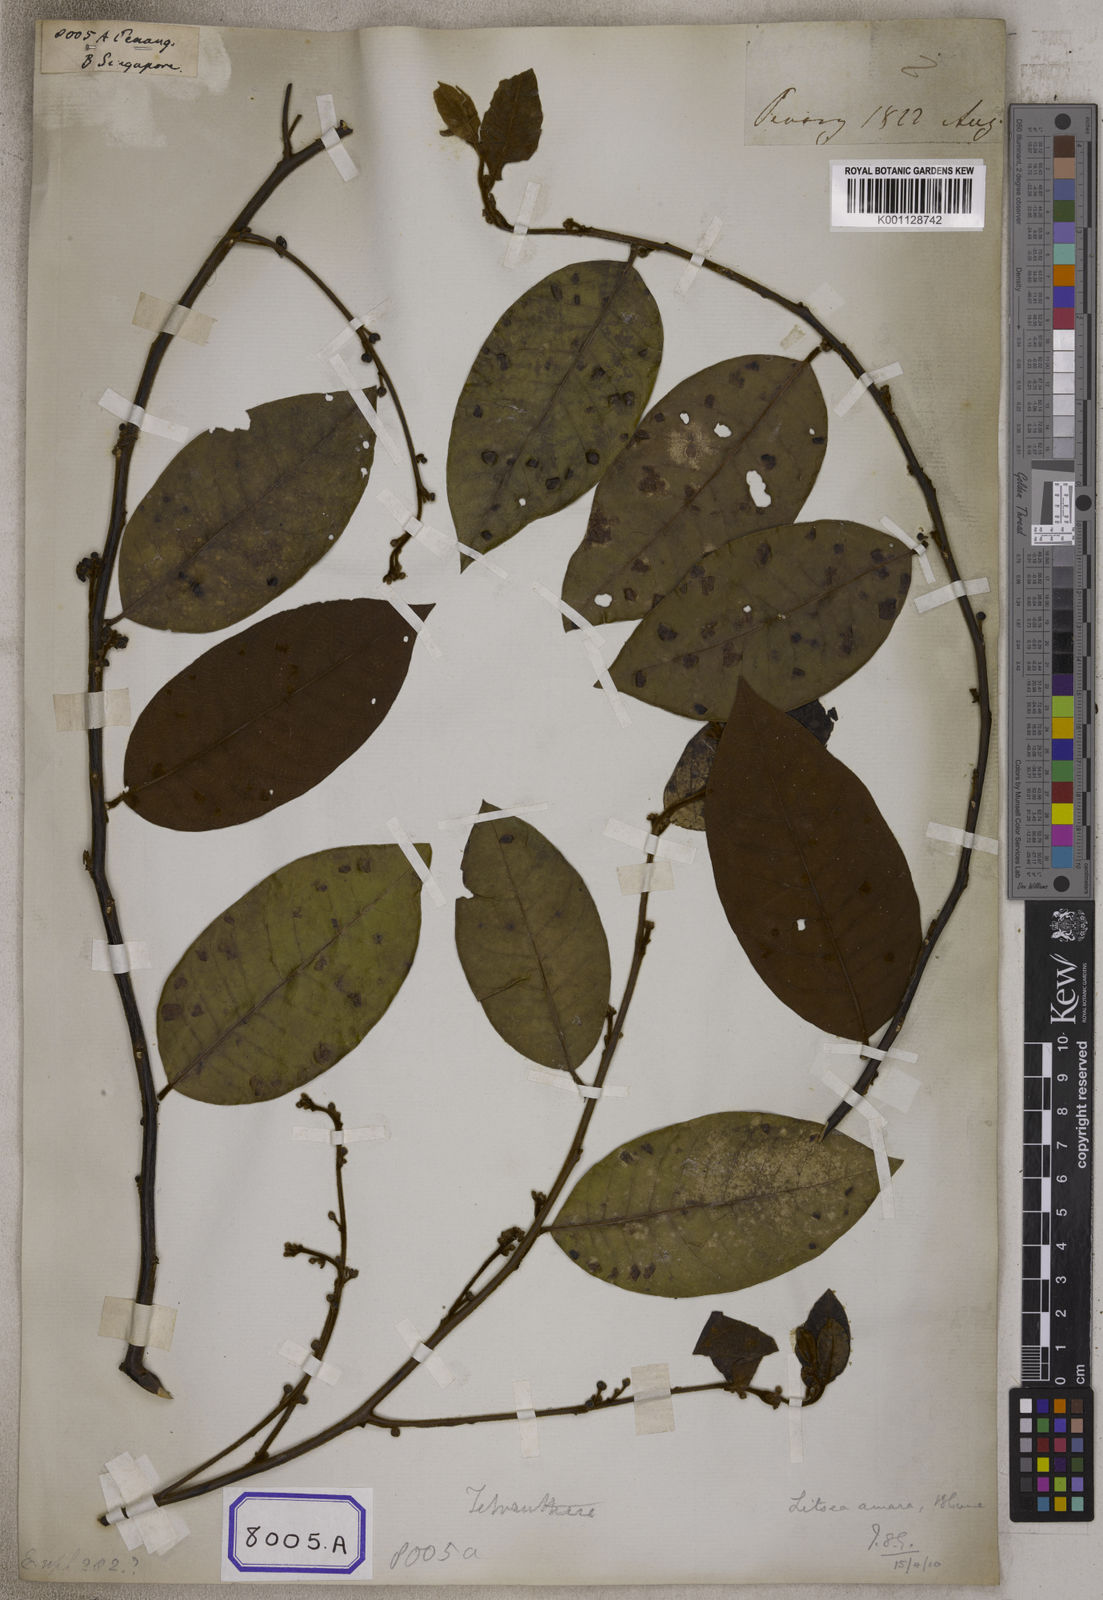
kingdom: Plantae
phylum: Tracheophyta
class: Magnoliopsida
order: Malpighiales
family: Euphorbiaceae
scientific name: Euphorbiaceae
